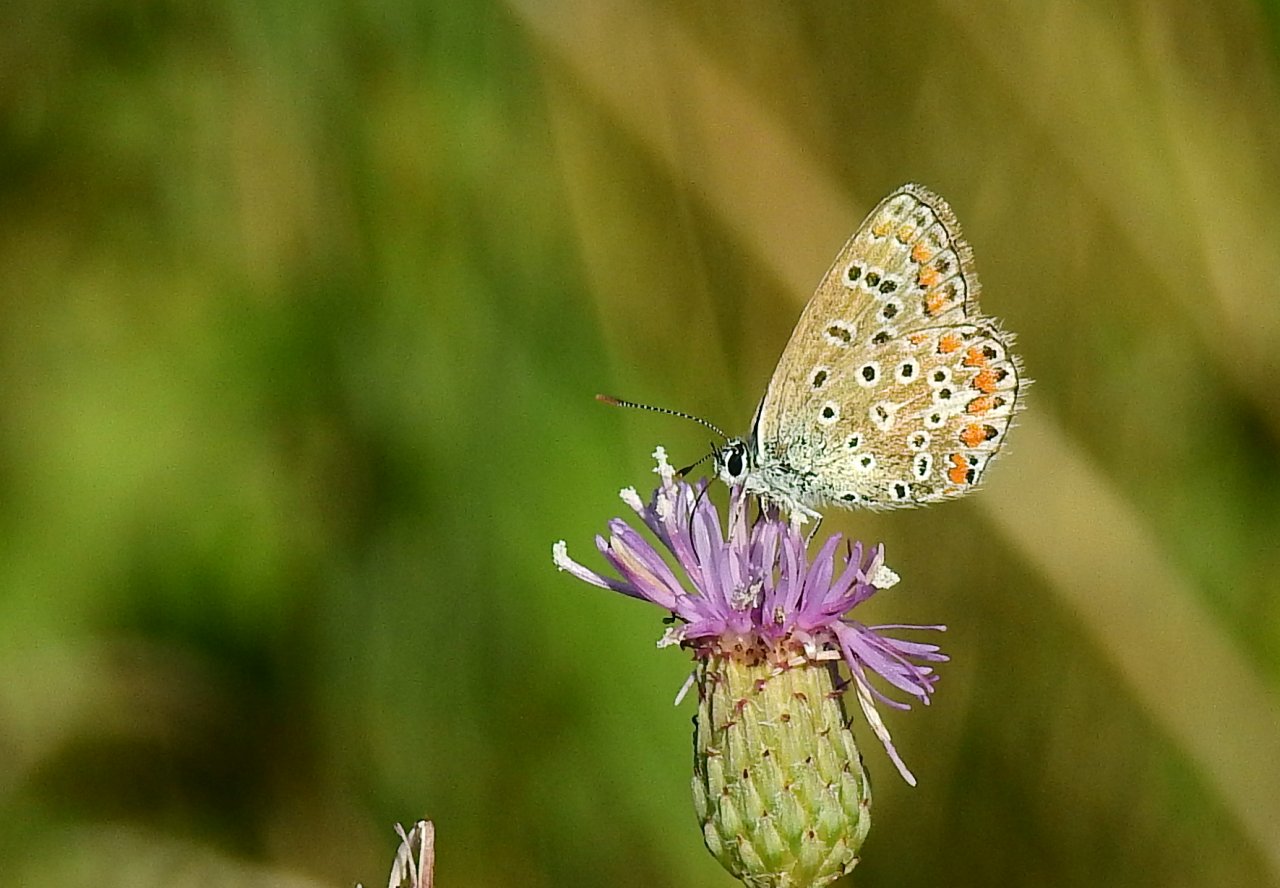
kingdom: Animalia
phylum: Arthropoda
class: Insecta
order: Lepidoptera
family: Lycaenidae
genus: Polyommatus
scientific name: Polyommatus icarus
